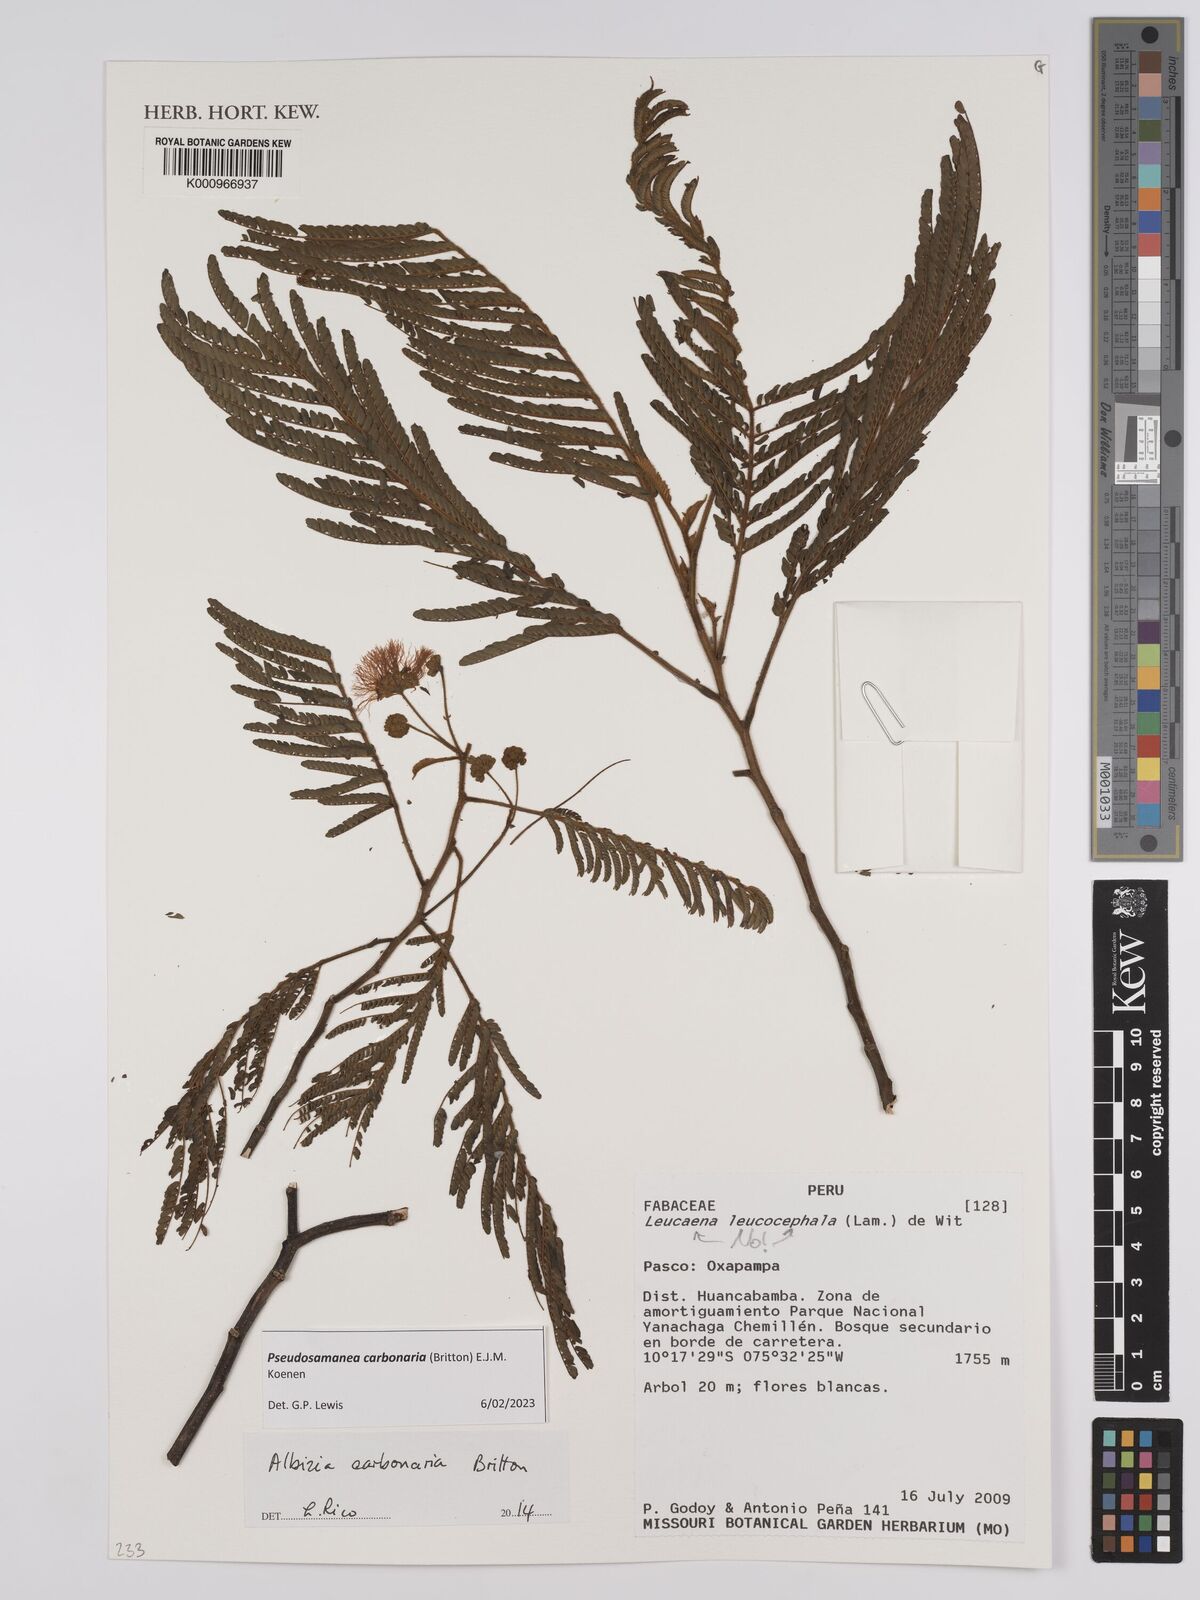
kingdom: Plantae
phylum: Tracheophyta
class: Magnoliopsida
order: Fabales
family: Fabaceae
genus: Albizia
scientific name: Albizia carbonaria
